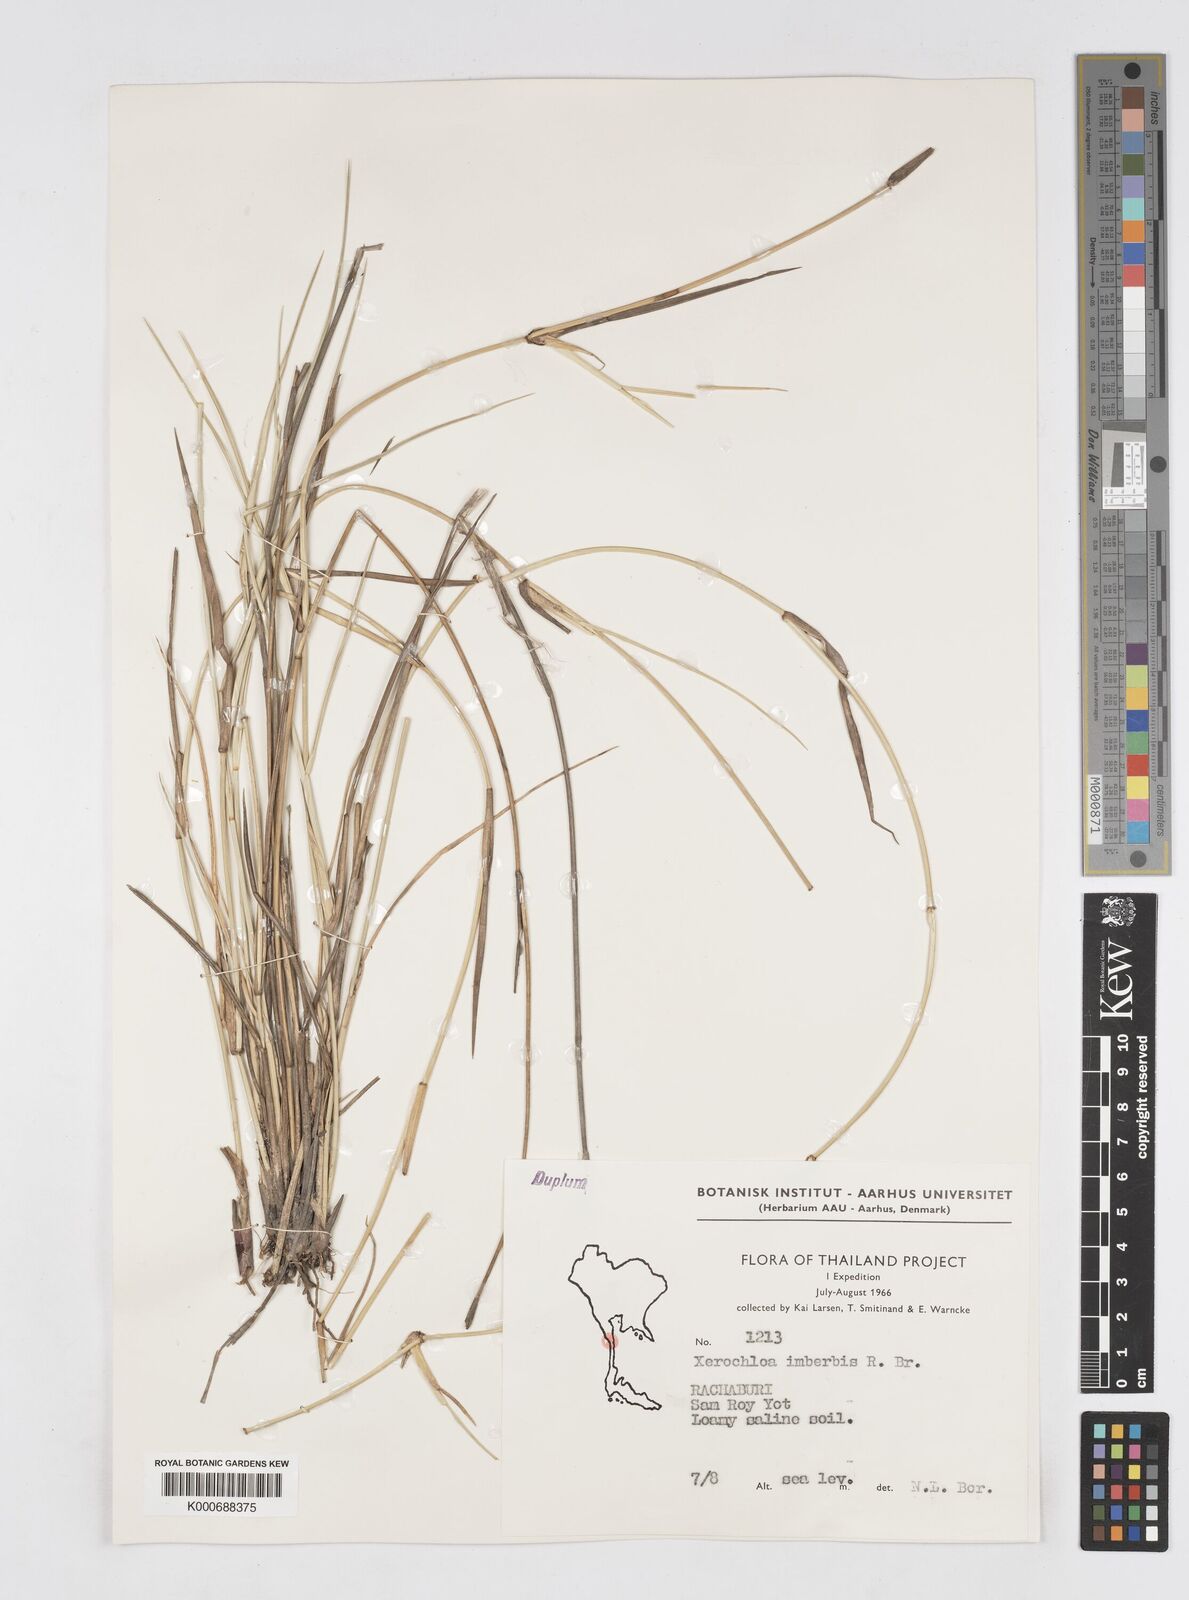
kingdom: Plantae
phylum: Tracheophyta
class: Liliopsida
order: Poales
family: Poaceae
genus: Xerochloa
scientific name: Xerochloa imberbis
